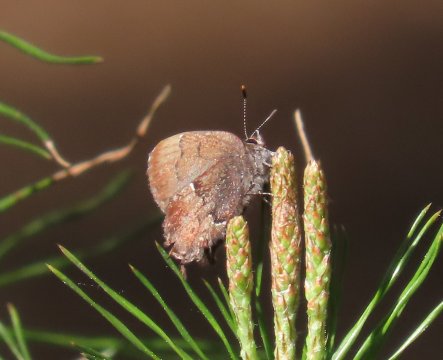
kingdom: Animalia
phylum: Arthropoda
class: Insecta
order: Lepidoptera
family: Lycaenidae
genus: Incisalia
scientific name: Incisalia henrici
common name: Henry's Elfin
